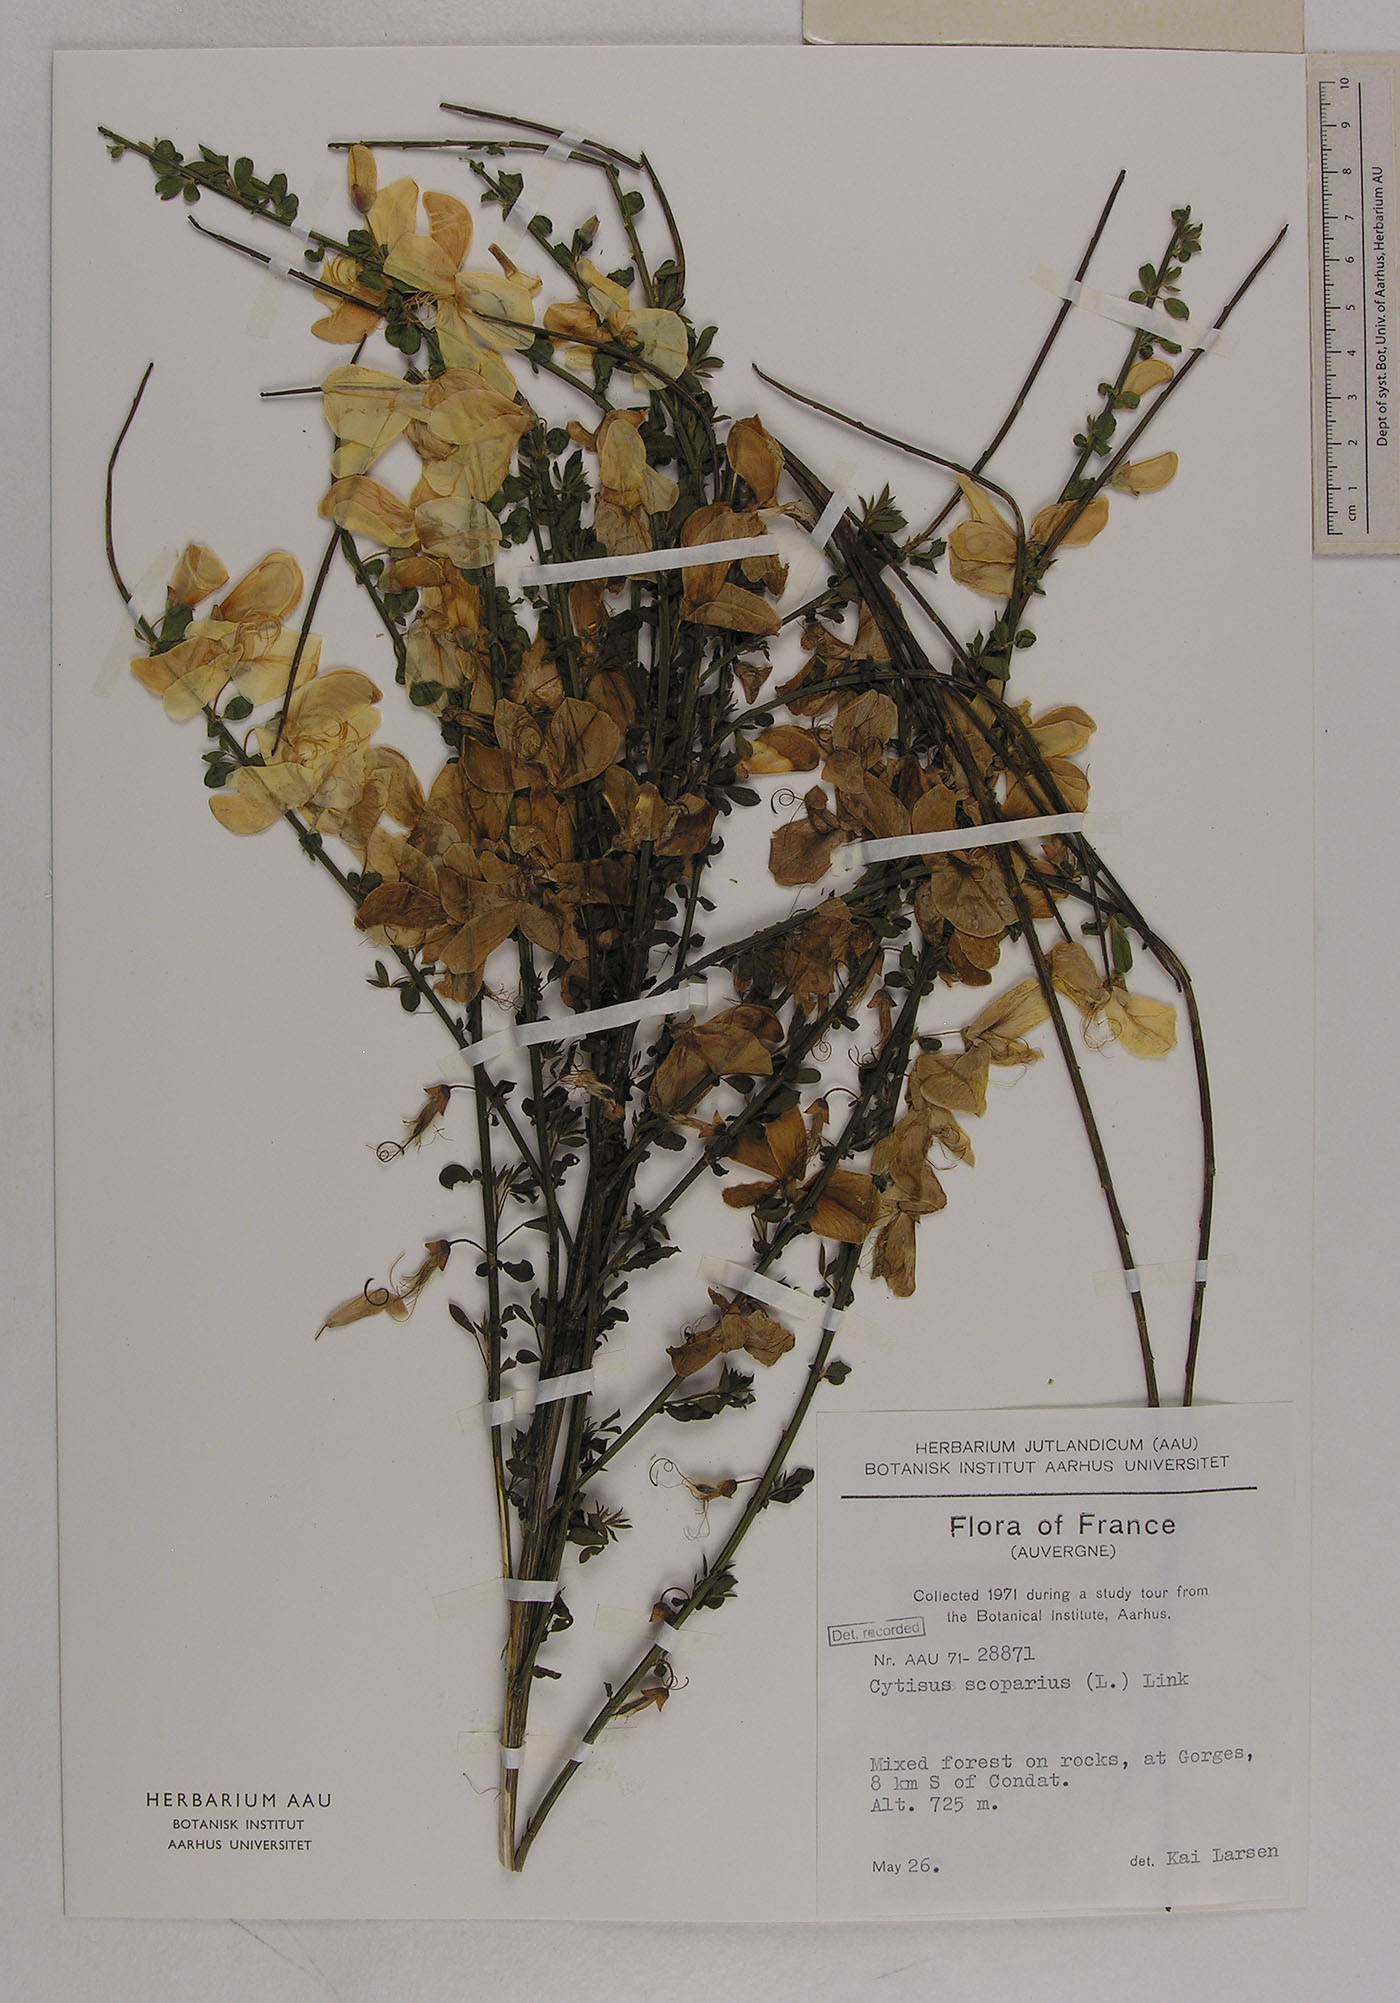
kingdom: Plantae
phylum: Tracheophyta
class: Magnoliopsida
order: Fabales
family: Fabaceae
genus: Cytisus
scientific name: Cytisus scoparius
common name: Scotch broom
